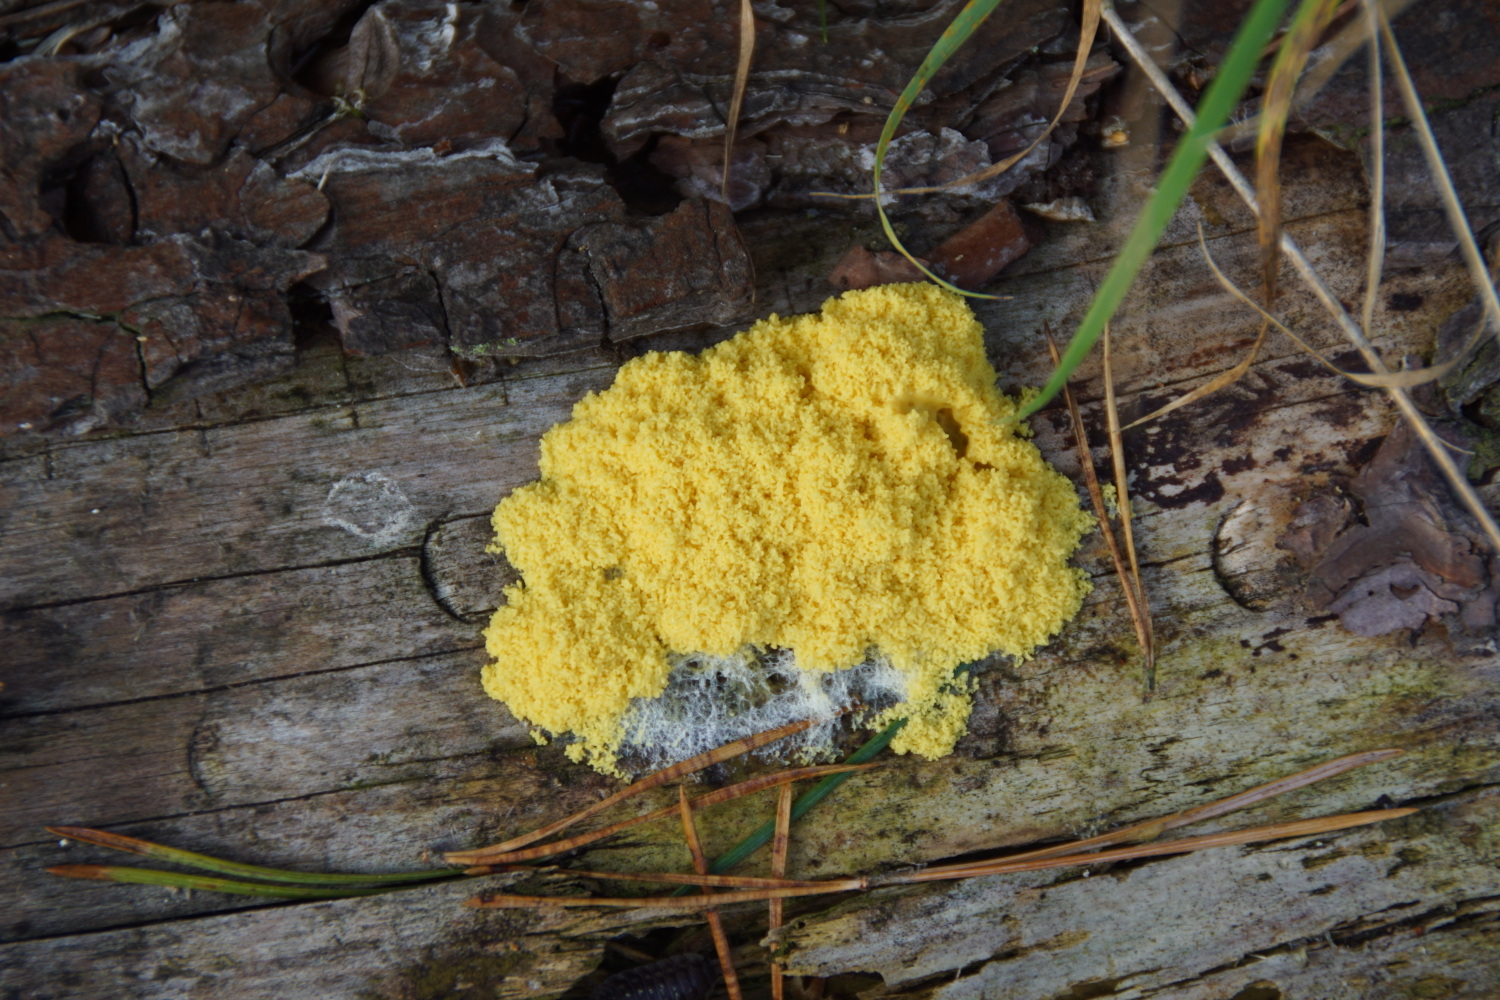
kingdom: Protozoa
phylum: Mycetozoa
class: Myxomycetes
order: Physarales
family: Physaraceae
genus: Fuligo
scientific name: Fuligo septica
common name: gul troldsmør
